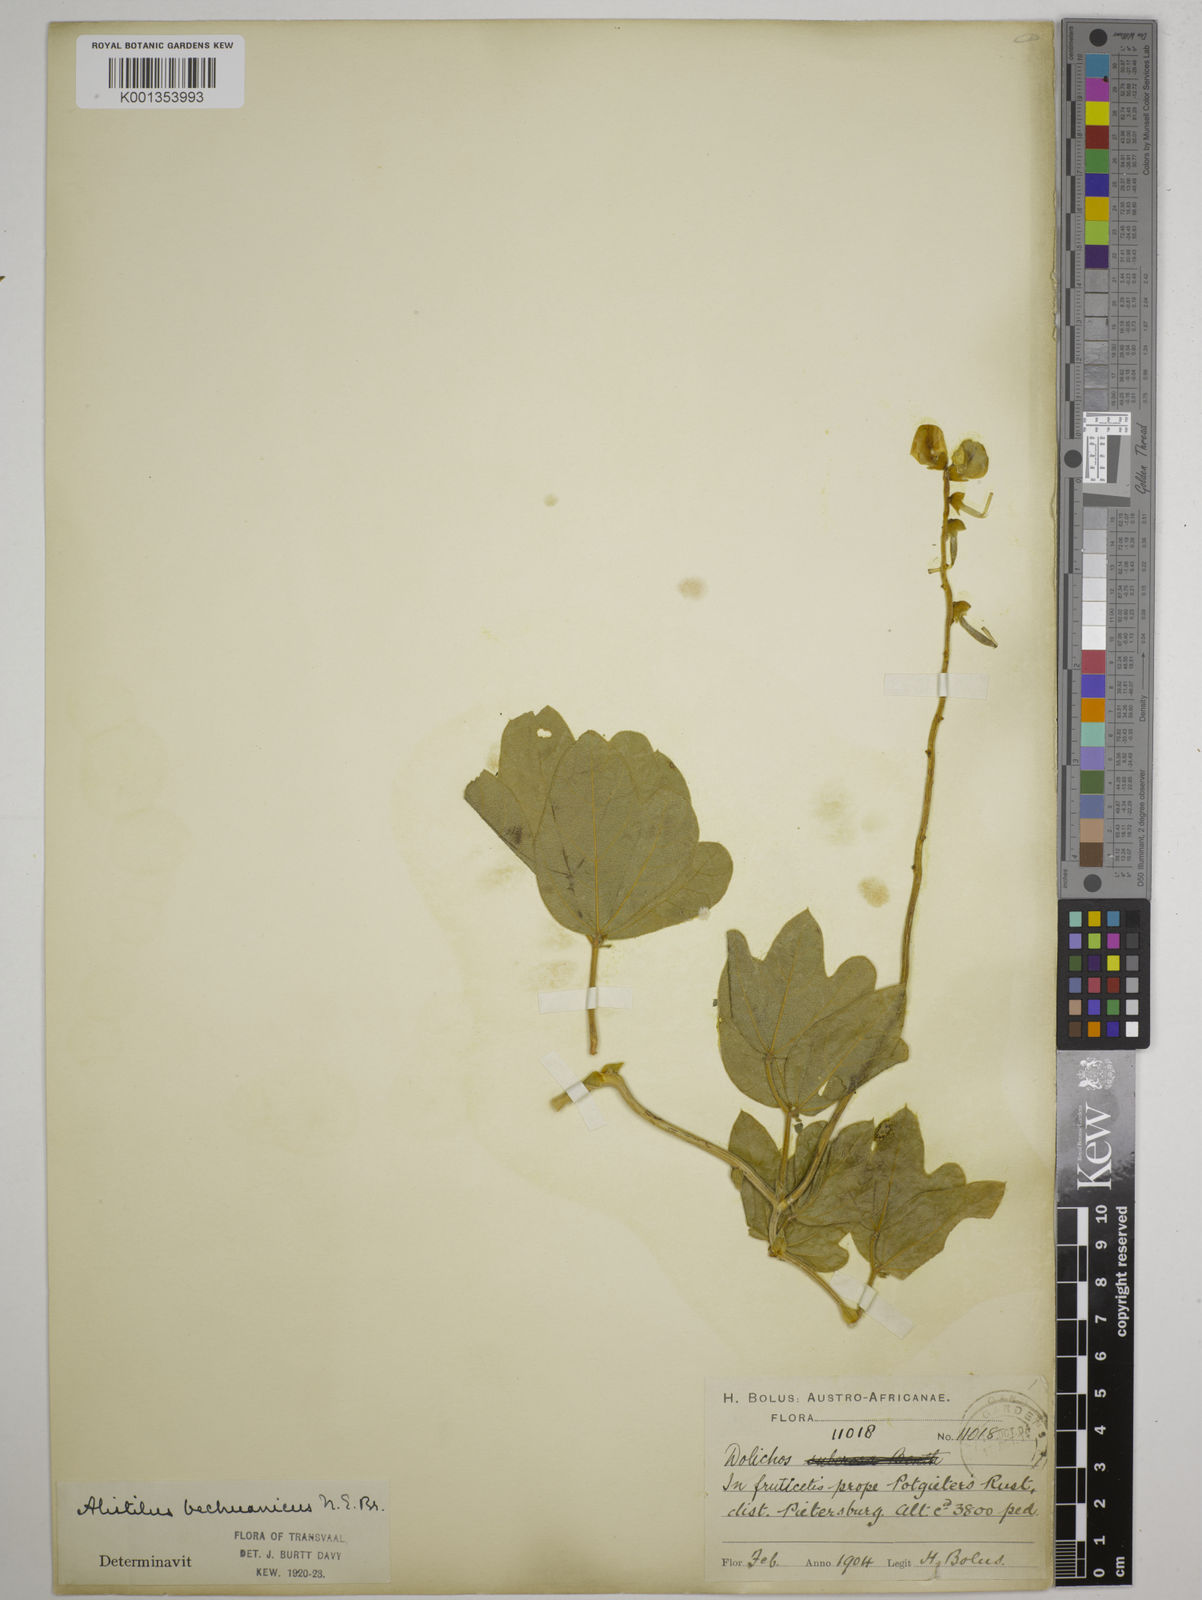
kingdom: Plantae
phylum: Tracheophyta
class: Magnoliopsida
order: Fabales
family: Fabaceae
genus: Alistilus
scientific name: Alistilus bechuanicus
